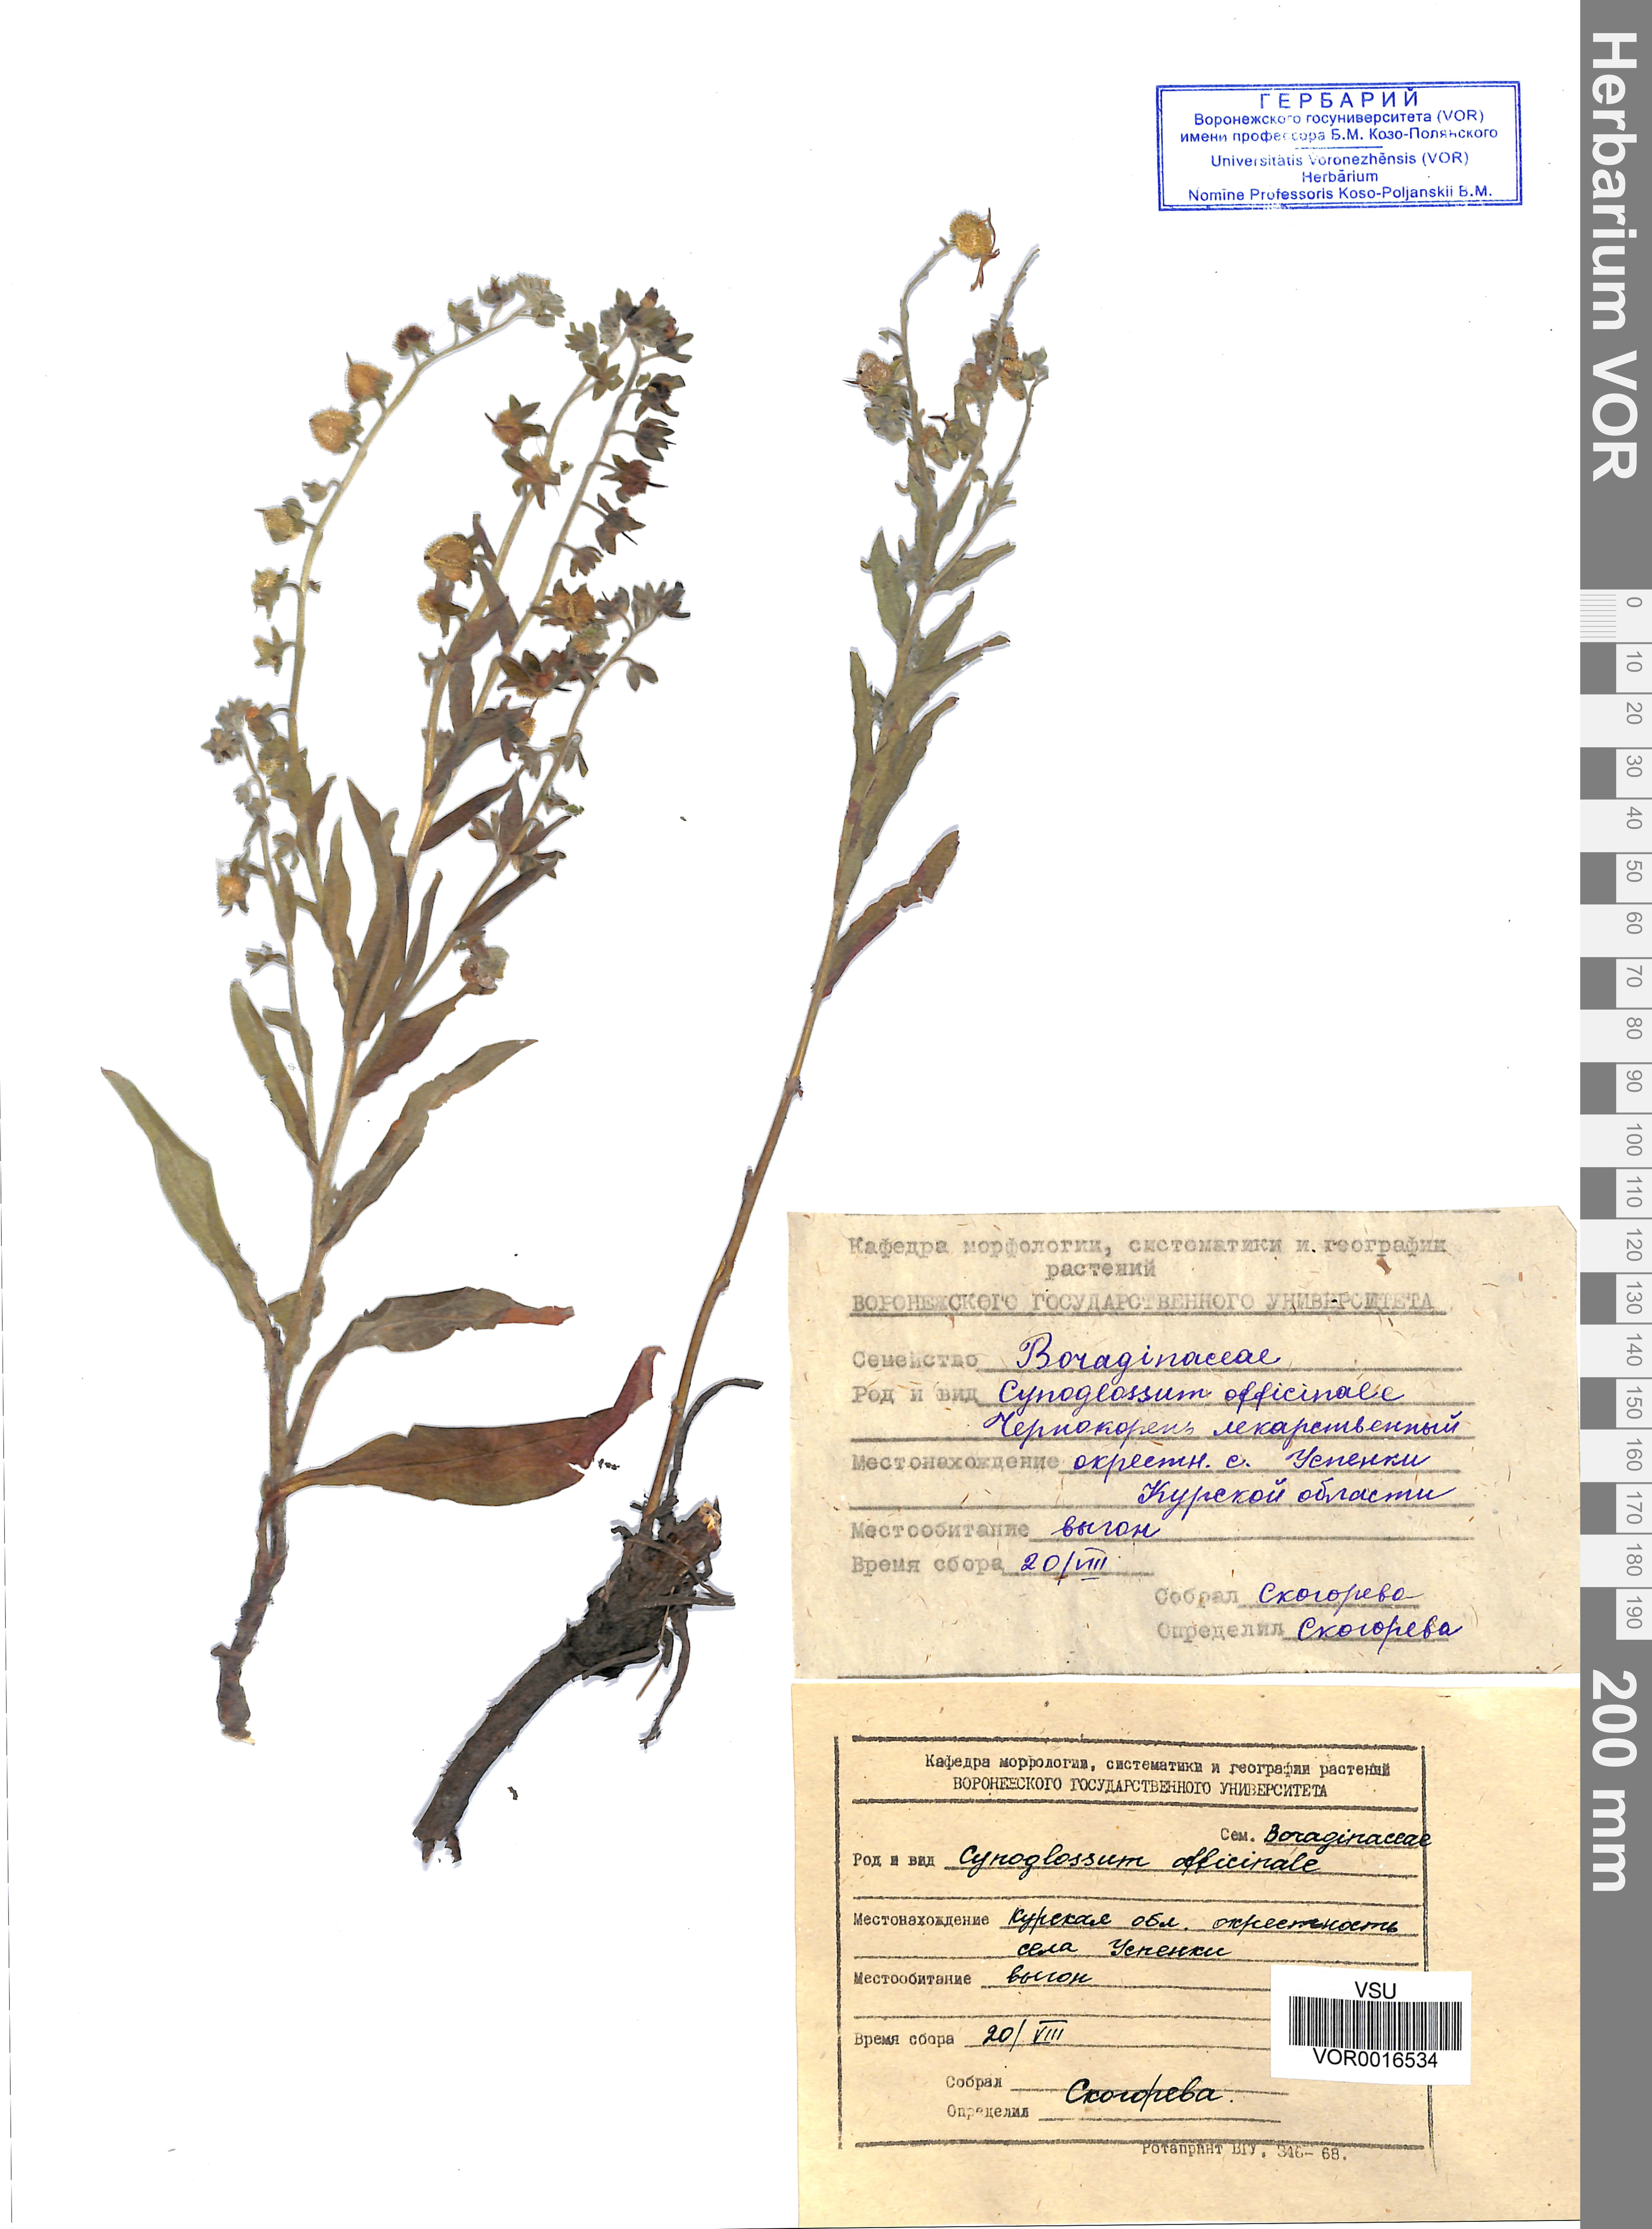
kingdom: Plantae
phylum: Tracheophyta
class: Magnoliopsida
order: Boraginales
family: Boraginaceae
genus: Cynoglossum
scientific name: Cynoglossum officinale
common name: Hound's-tongue
